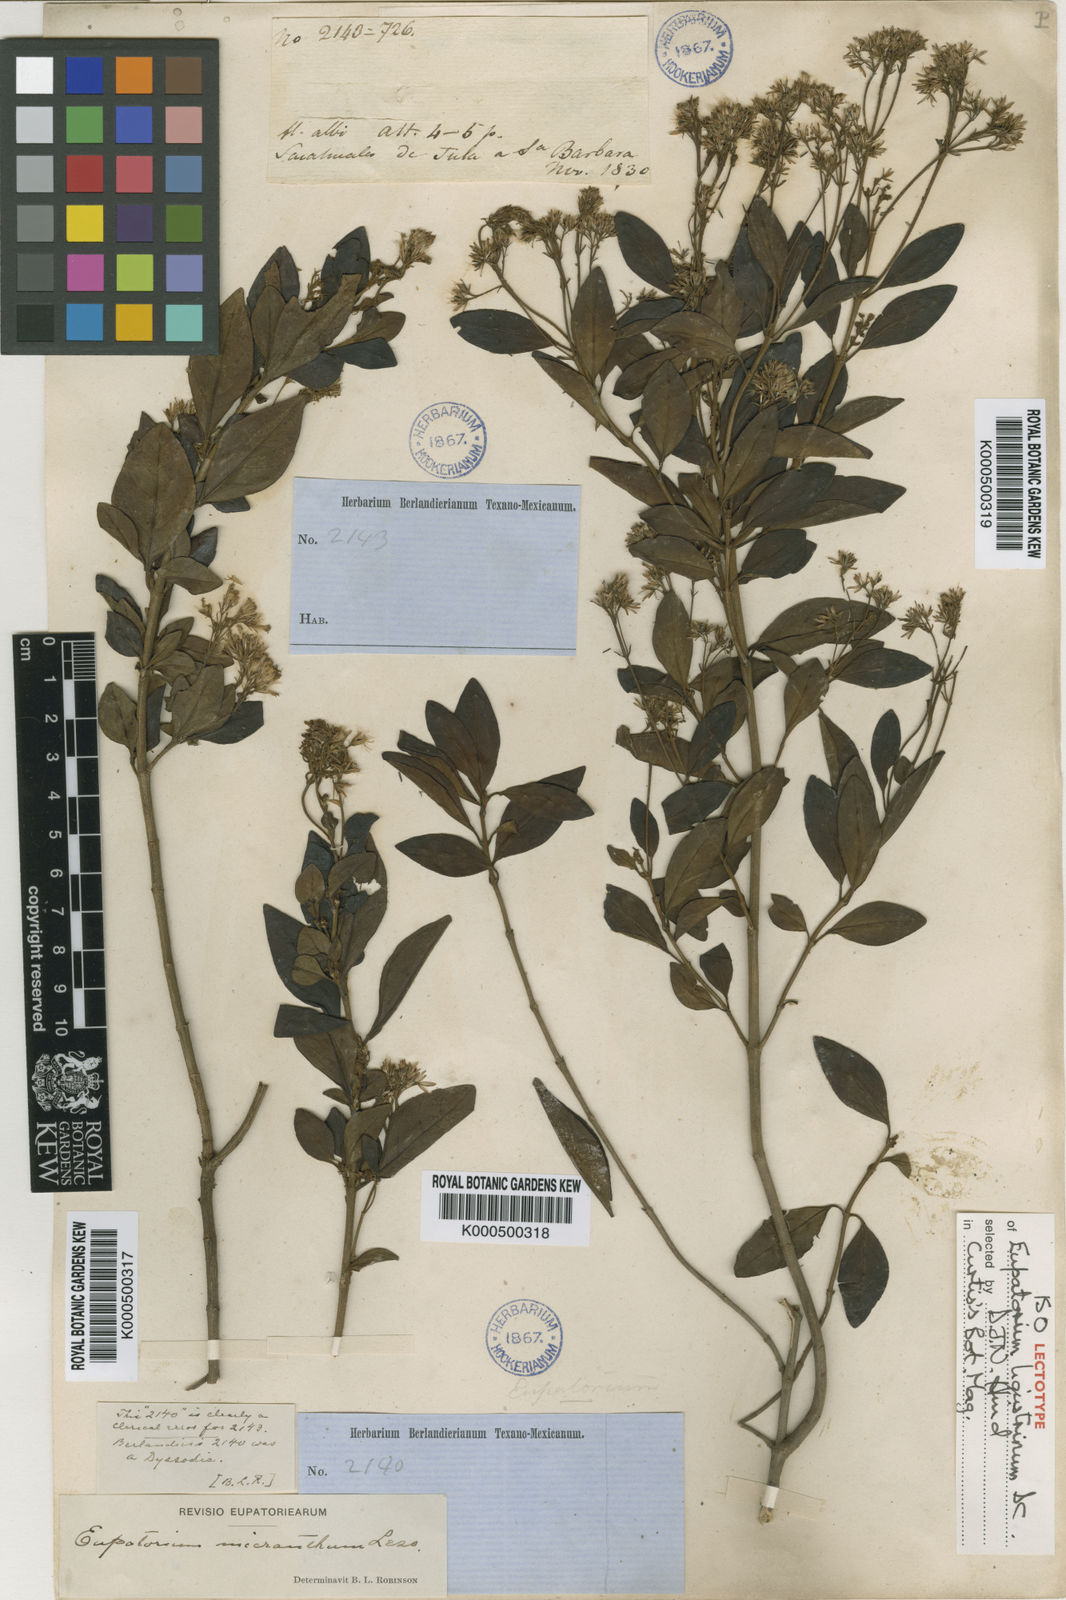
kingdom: Plantae
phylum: Tracheophyta
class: Magnoliopsida
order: Asterales
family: Asteraceae
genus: Ageratina
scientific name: Ageratina ligustrina
